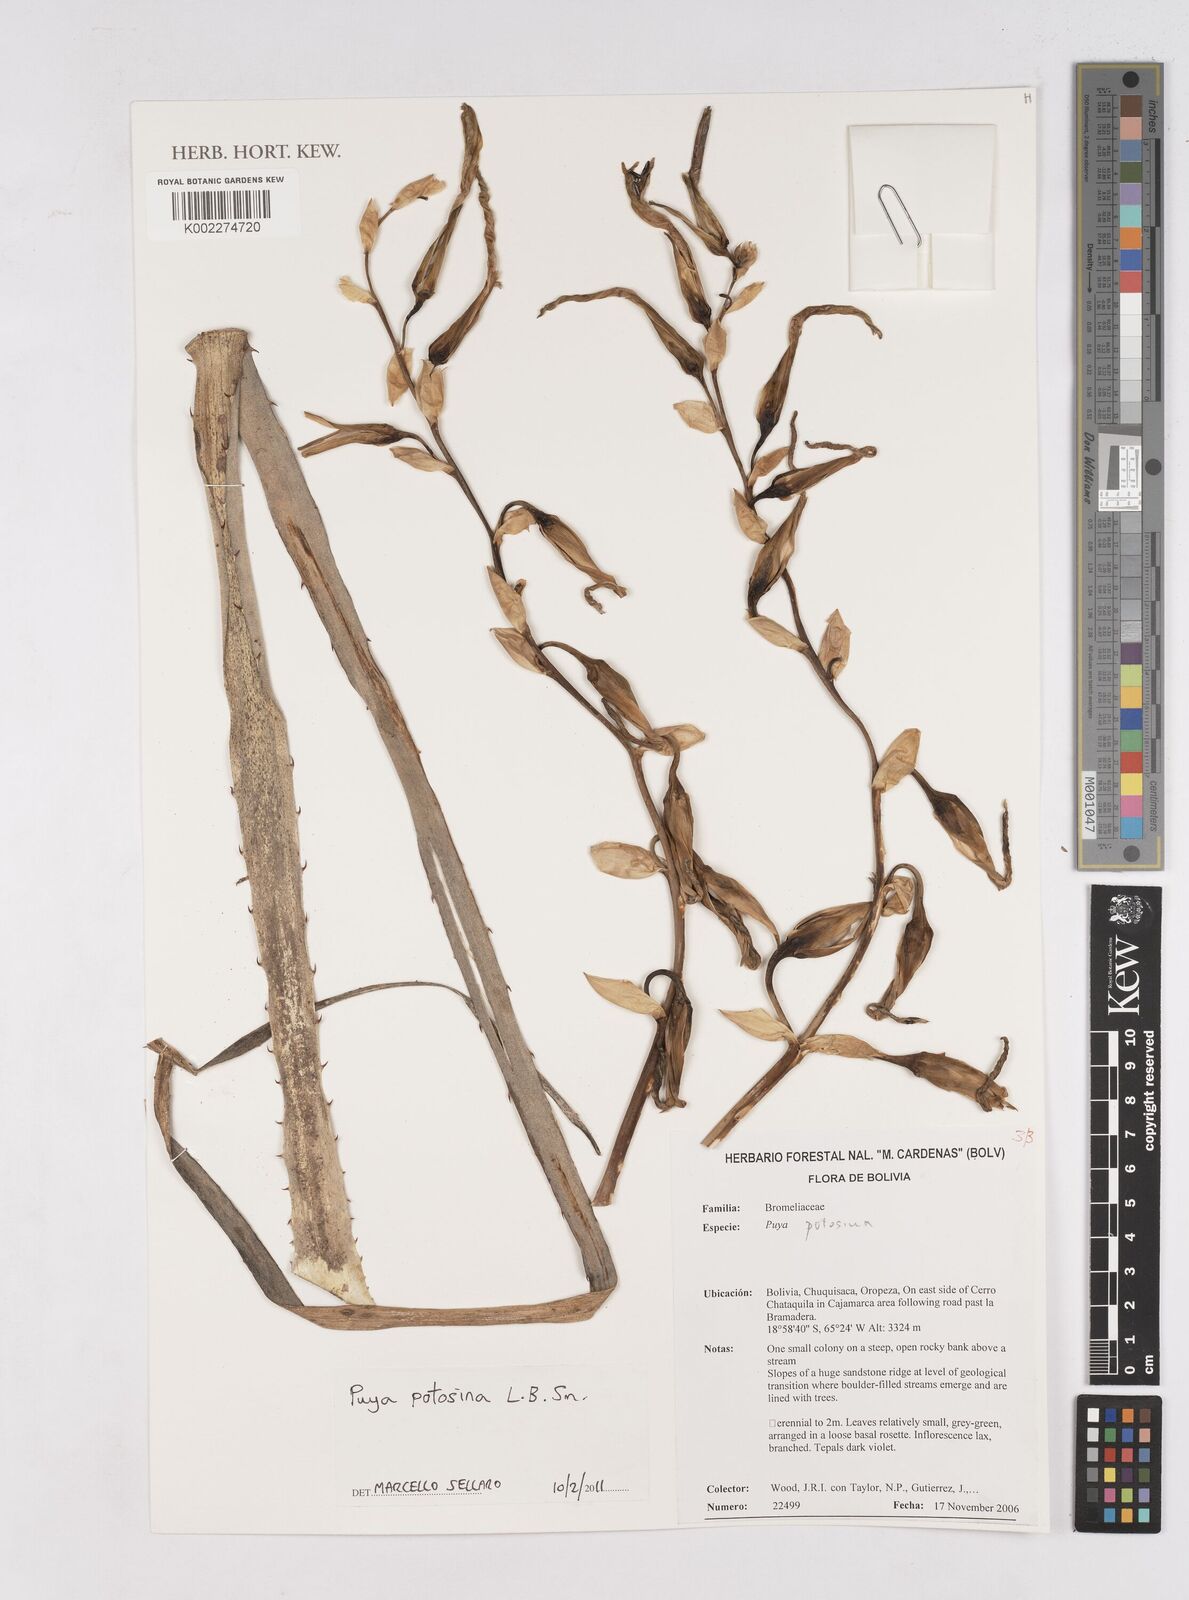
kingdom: Plantae
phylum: Tracheophyta
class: Liliopsida
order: Poales
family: Bromeliaceae
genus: Puya
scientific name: Puya potosina
